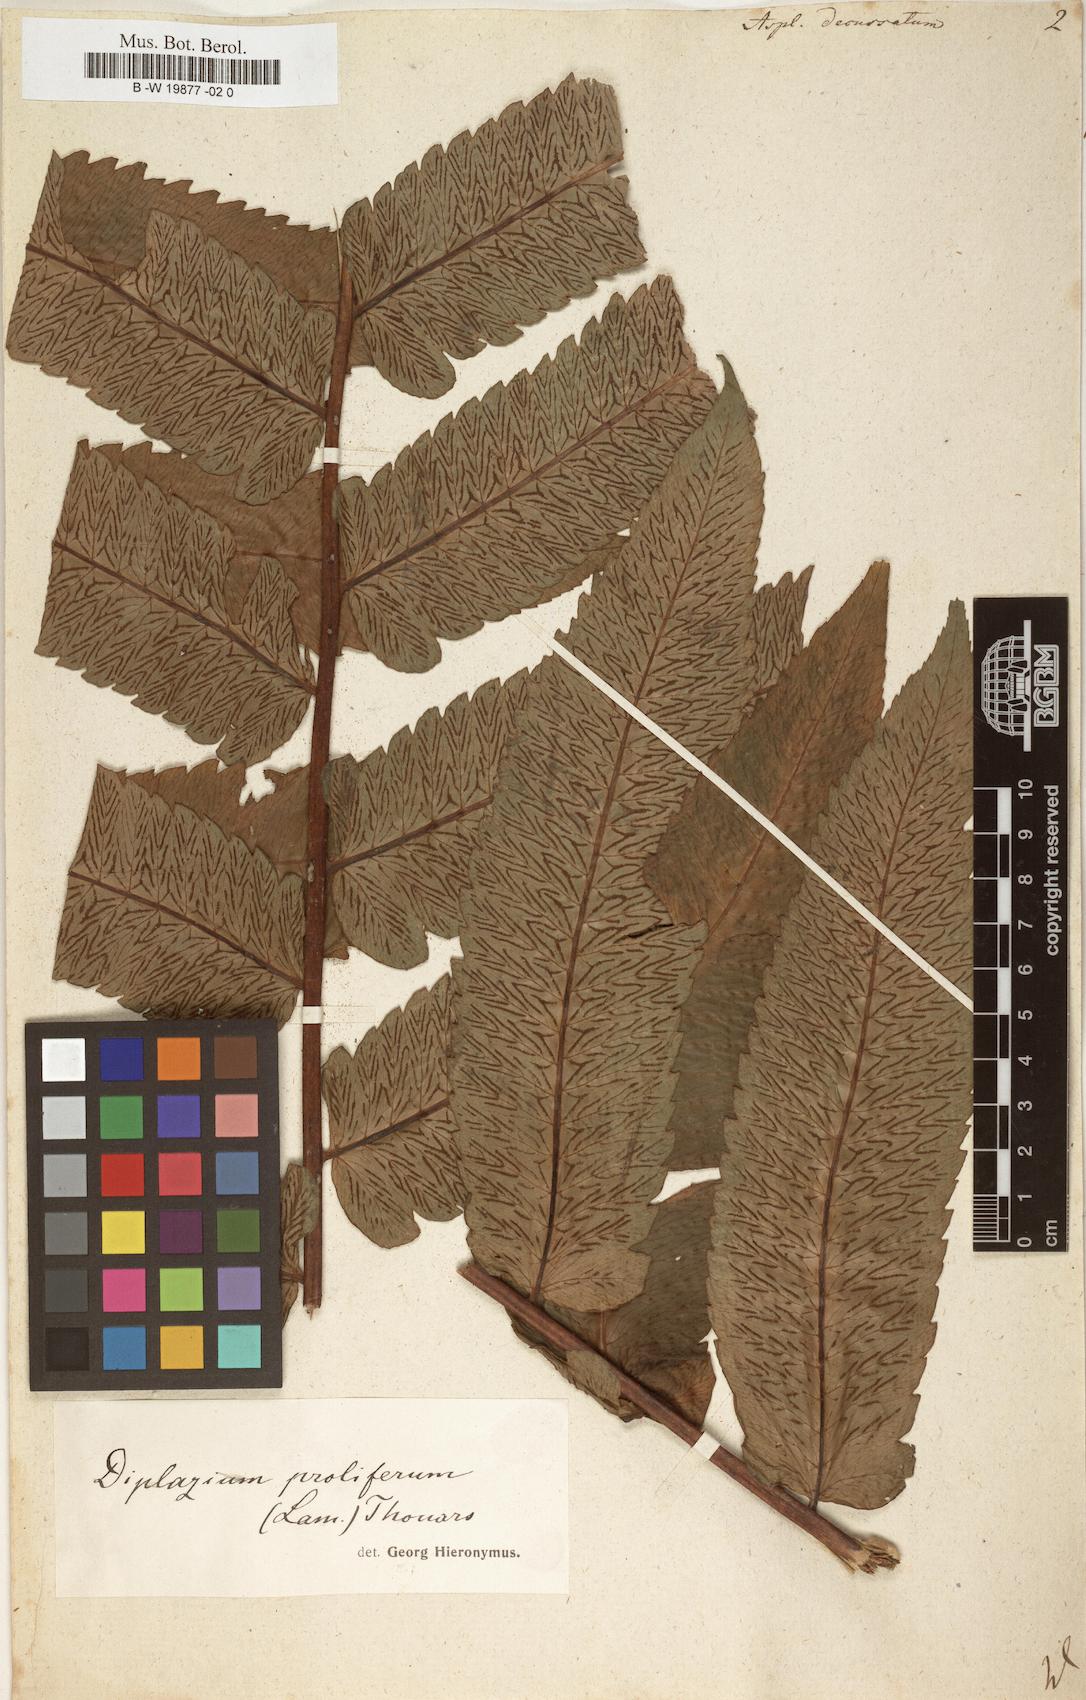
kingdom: Plantae
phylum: Tracheophyta
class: Polypodiopsida
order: Polypodiales
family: Athyriaceae
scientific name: Athyriaceae
